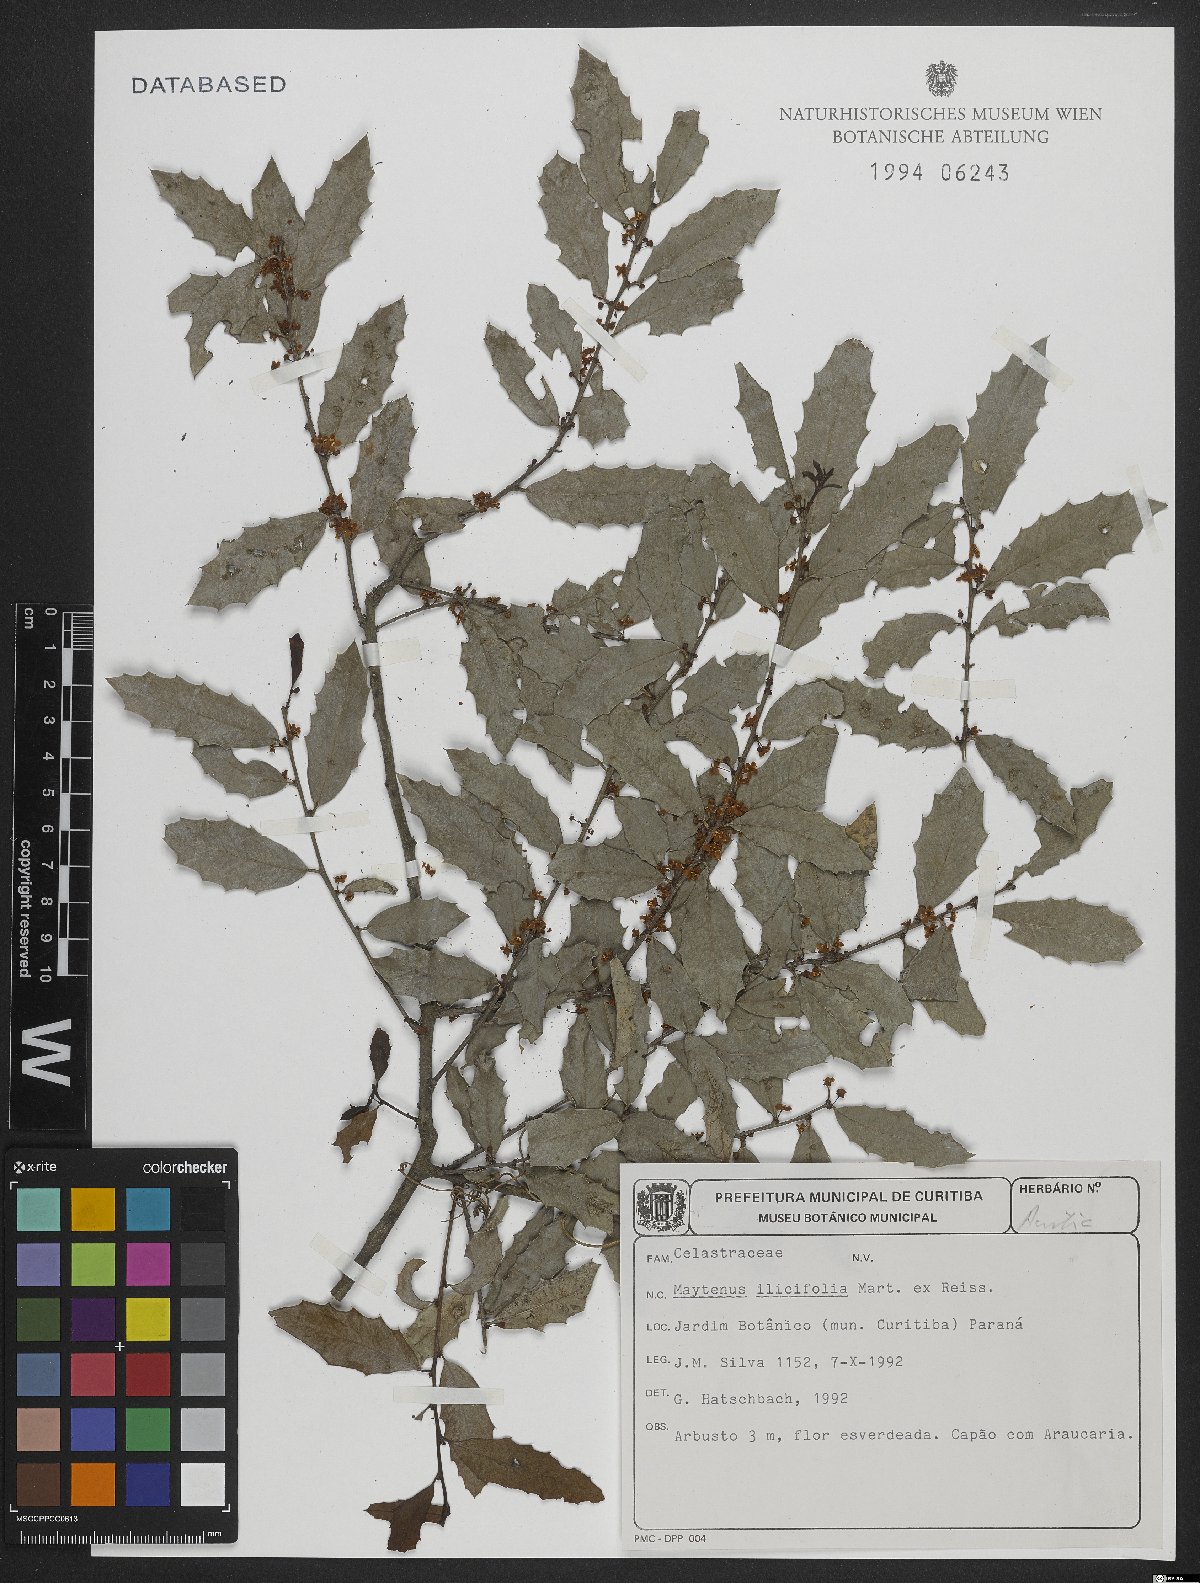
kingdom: Plantae
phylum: Tracheophyta
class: Magnoliopsida
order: Celastrales
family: Celastraceae
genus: Monteverdia
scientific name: Monteverdia ilicifolia
